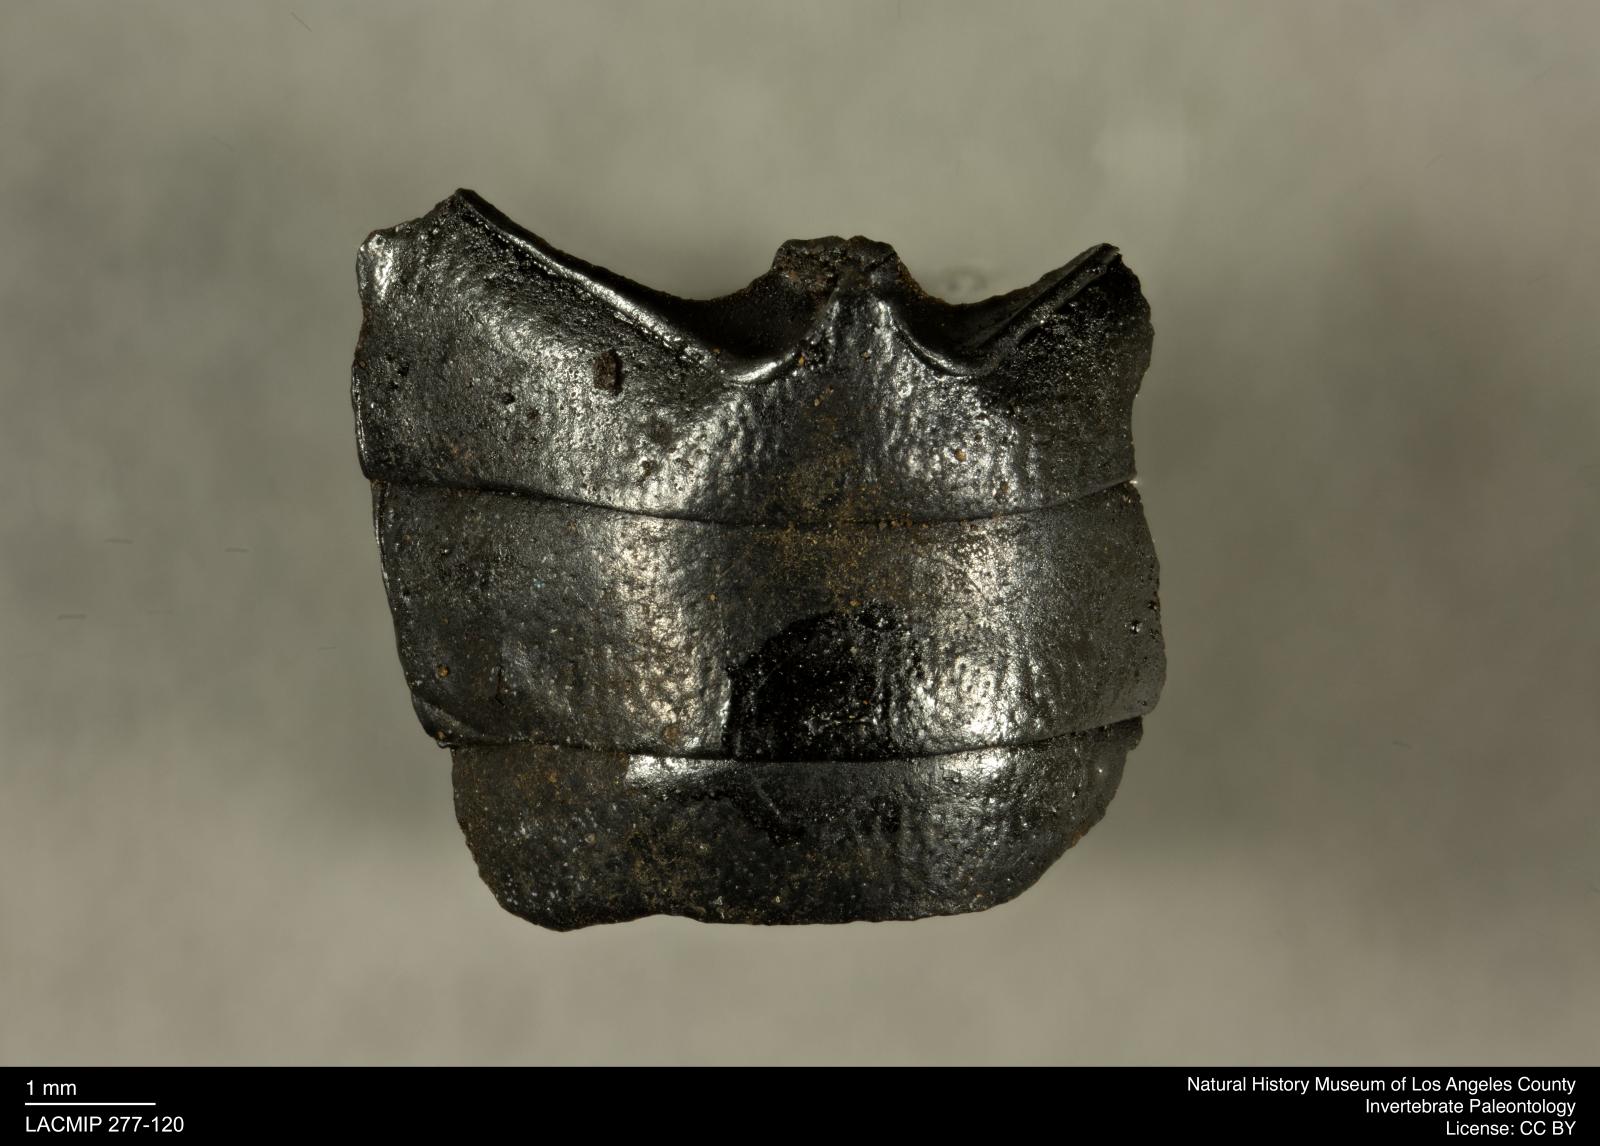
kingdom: Animalia
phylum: Arthropoda
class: Insecta
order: Coleoptera
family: Tenebrionidae
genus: Coniontis
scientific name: Coniontis abdominalis
